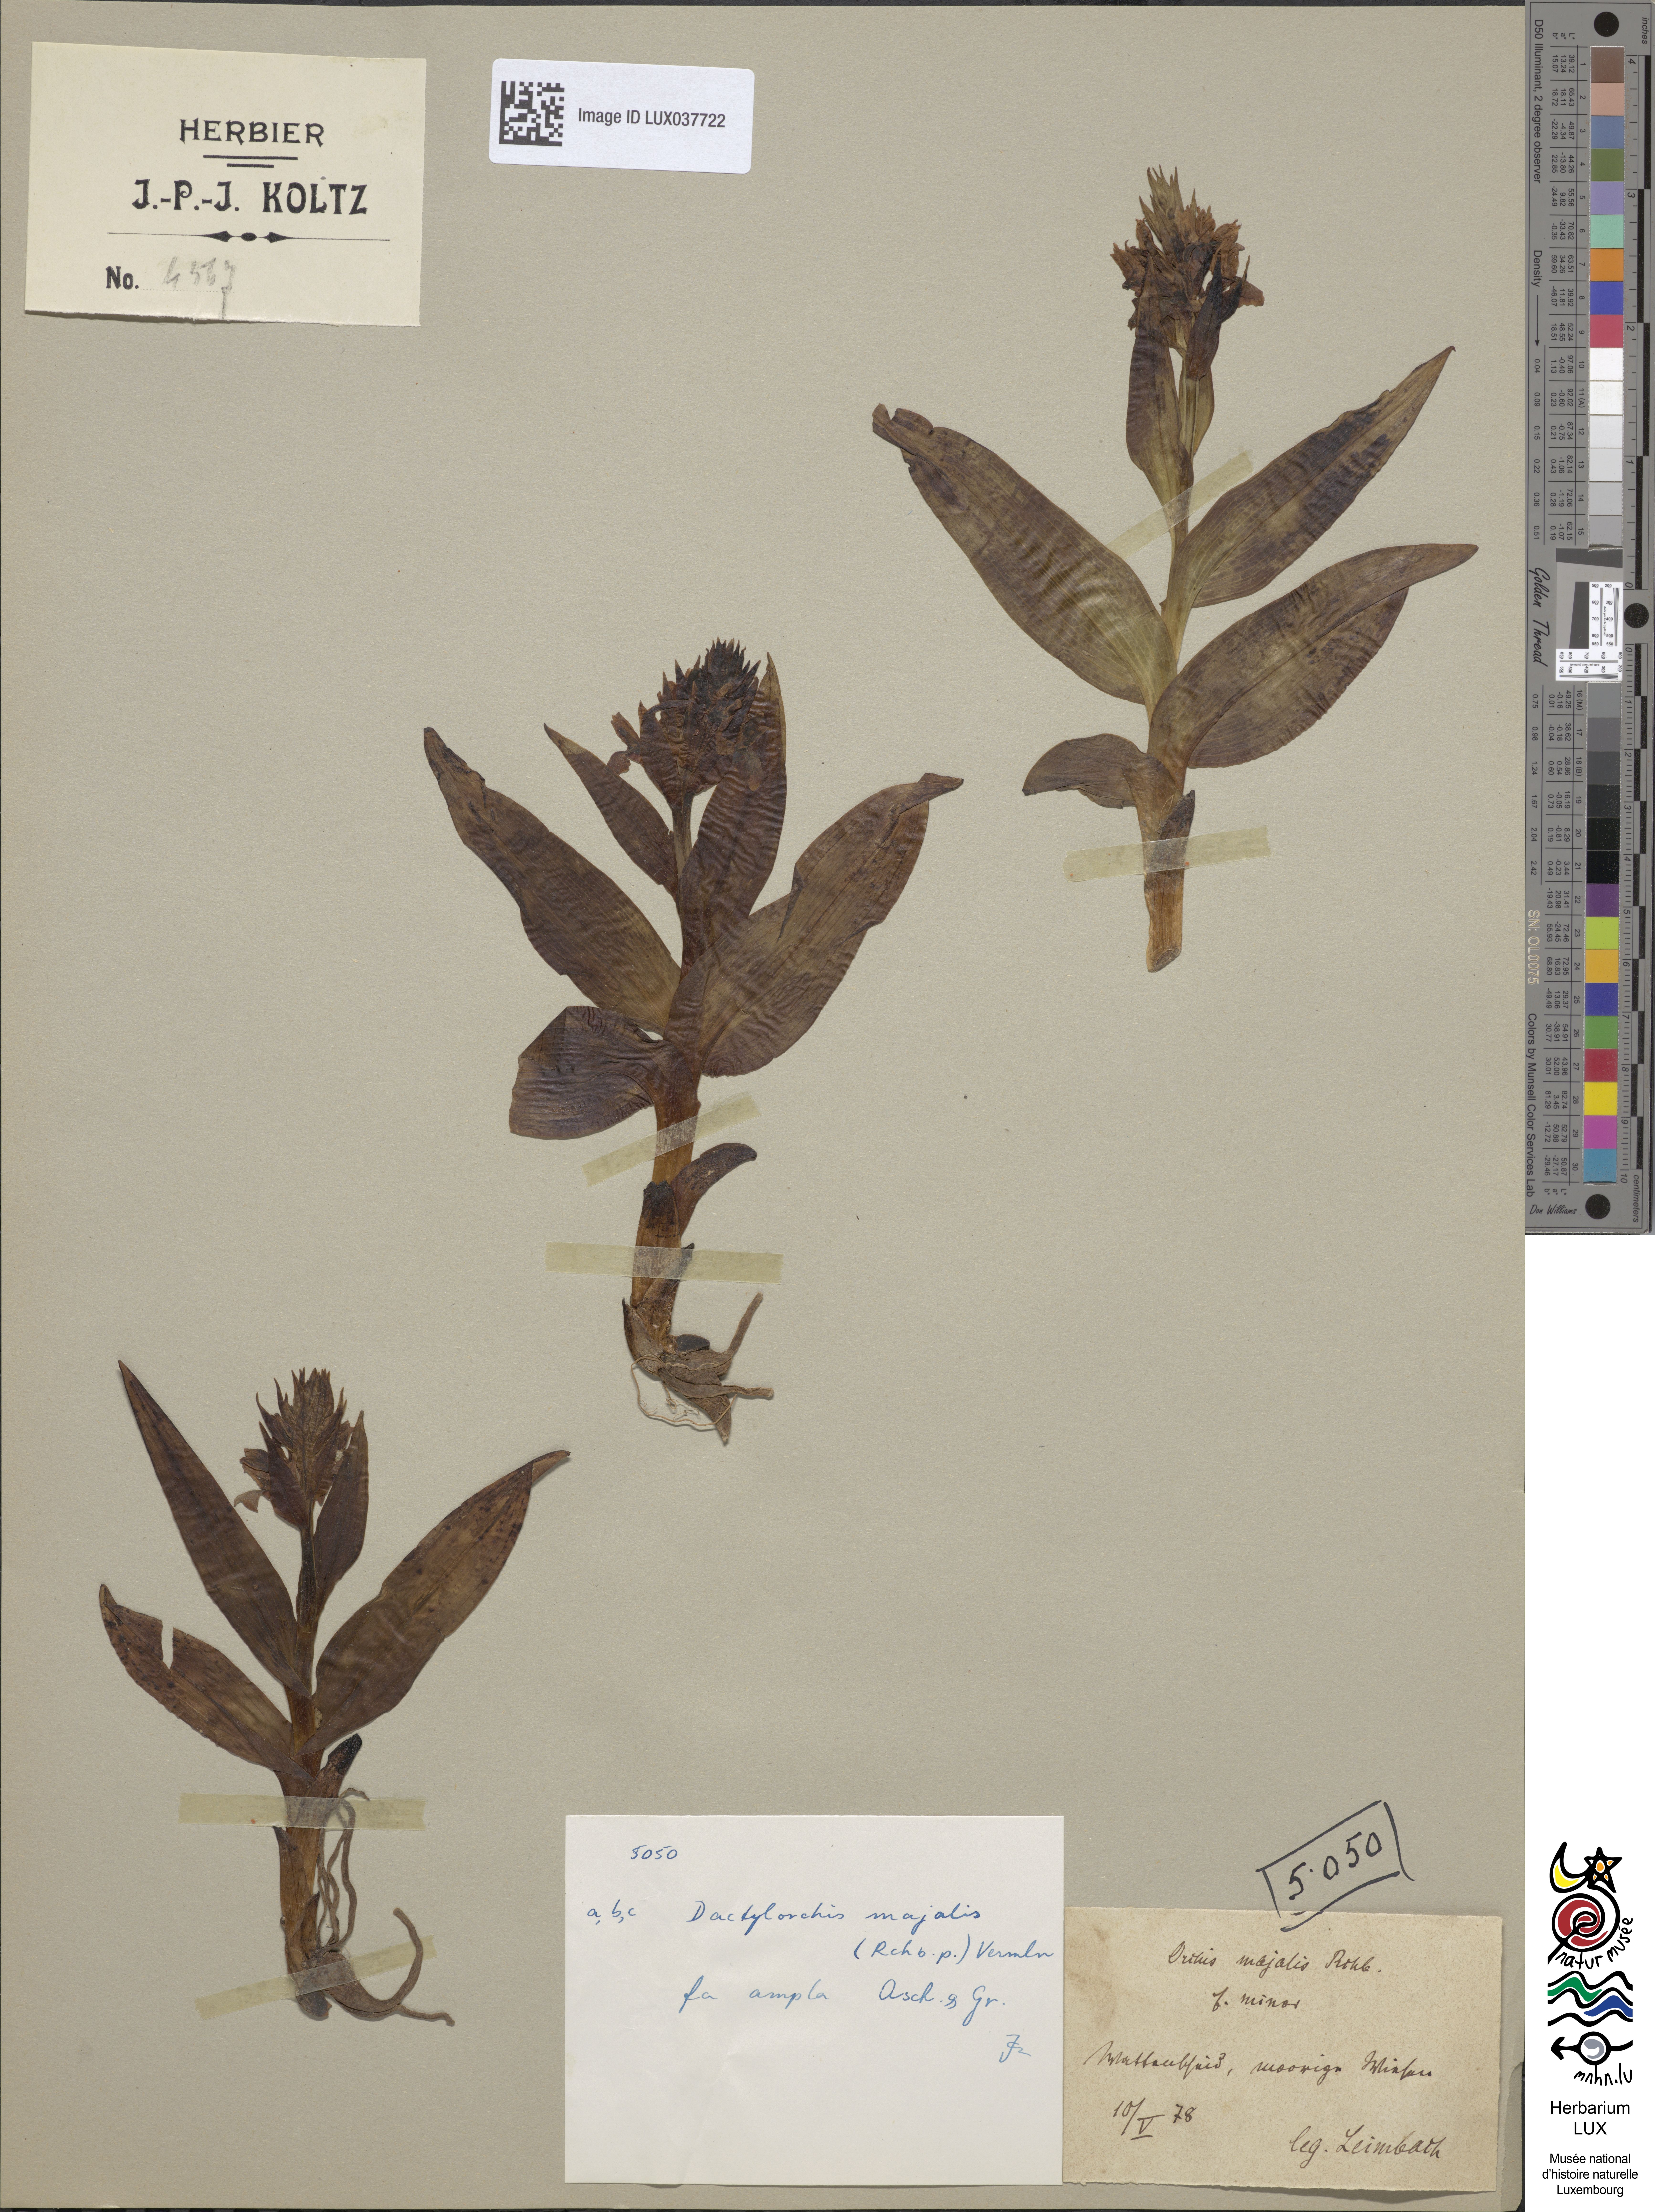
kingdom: Plantae
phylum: Tracheophyta
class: Liliopsida
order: Asparagales
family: Orchidaceae
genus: Dactylorhiza
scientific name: Dactylorhiza incarnata
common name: Early marsh-orchid
